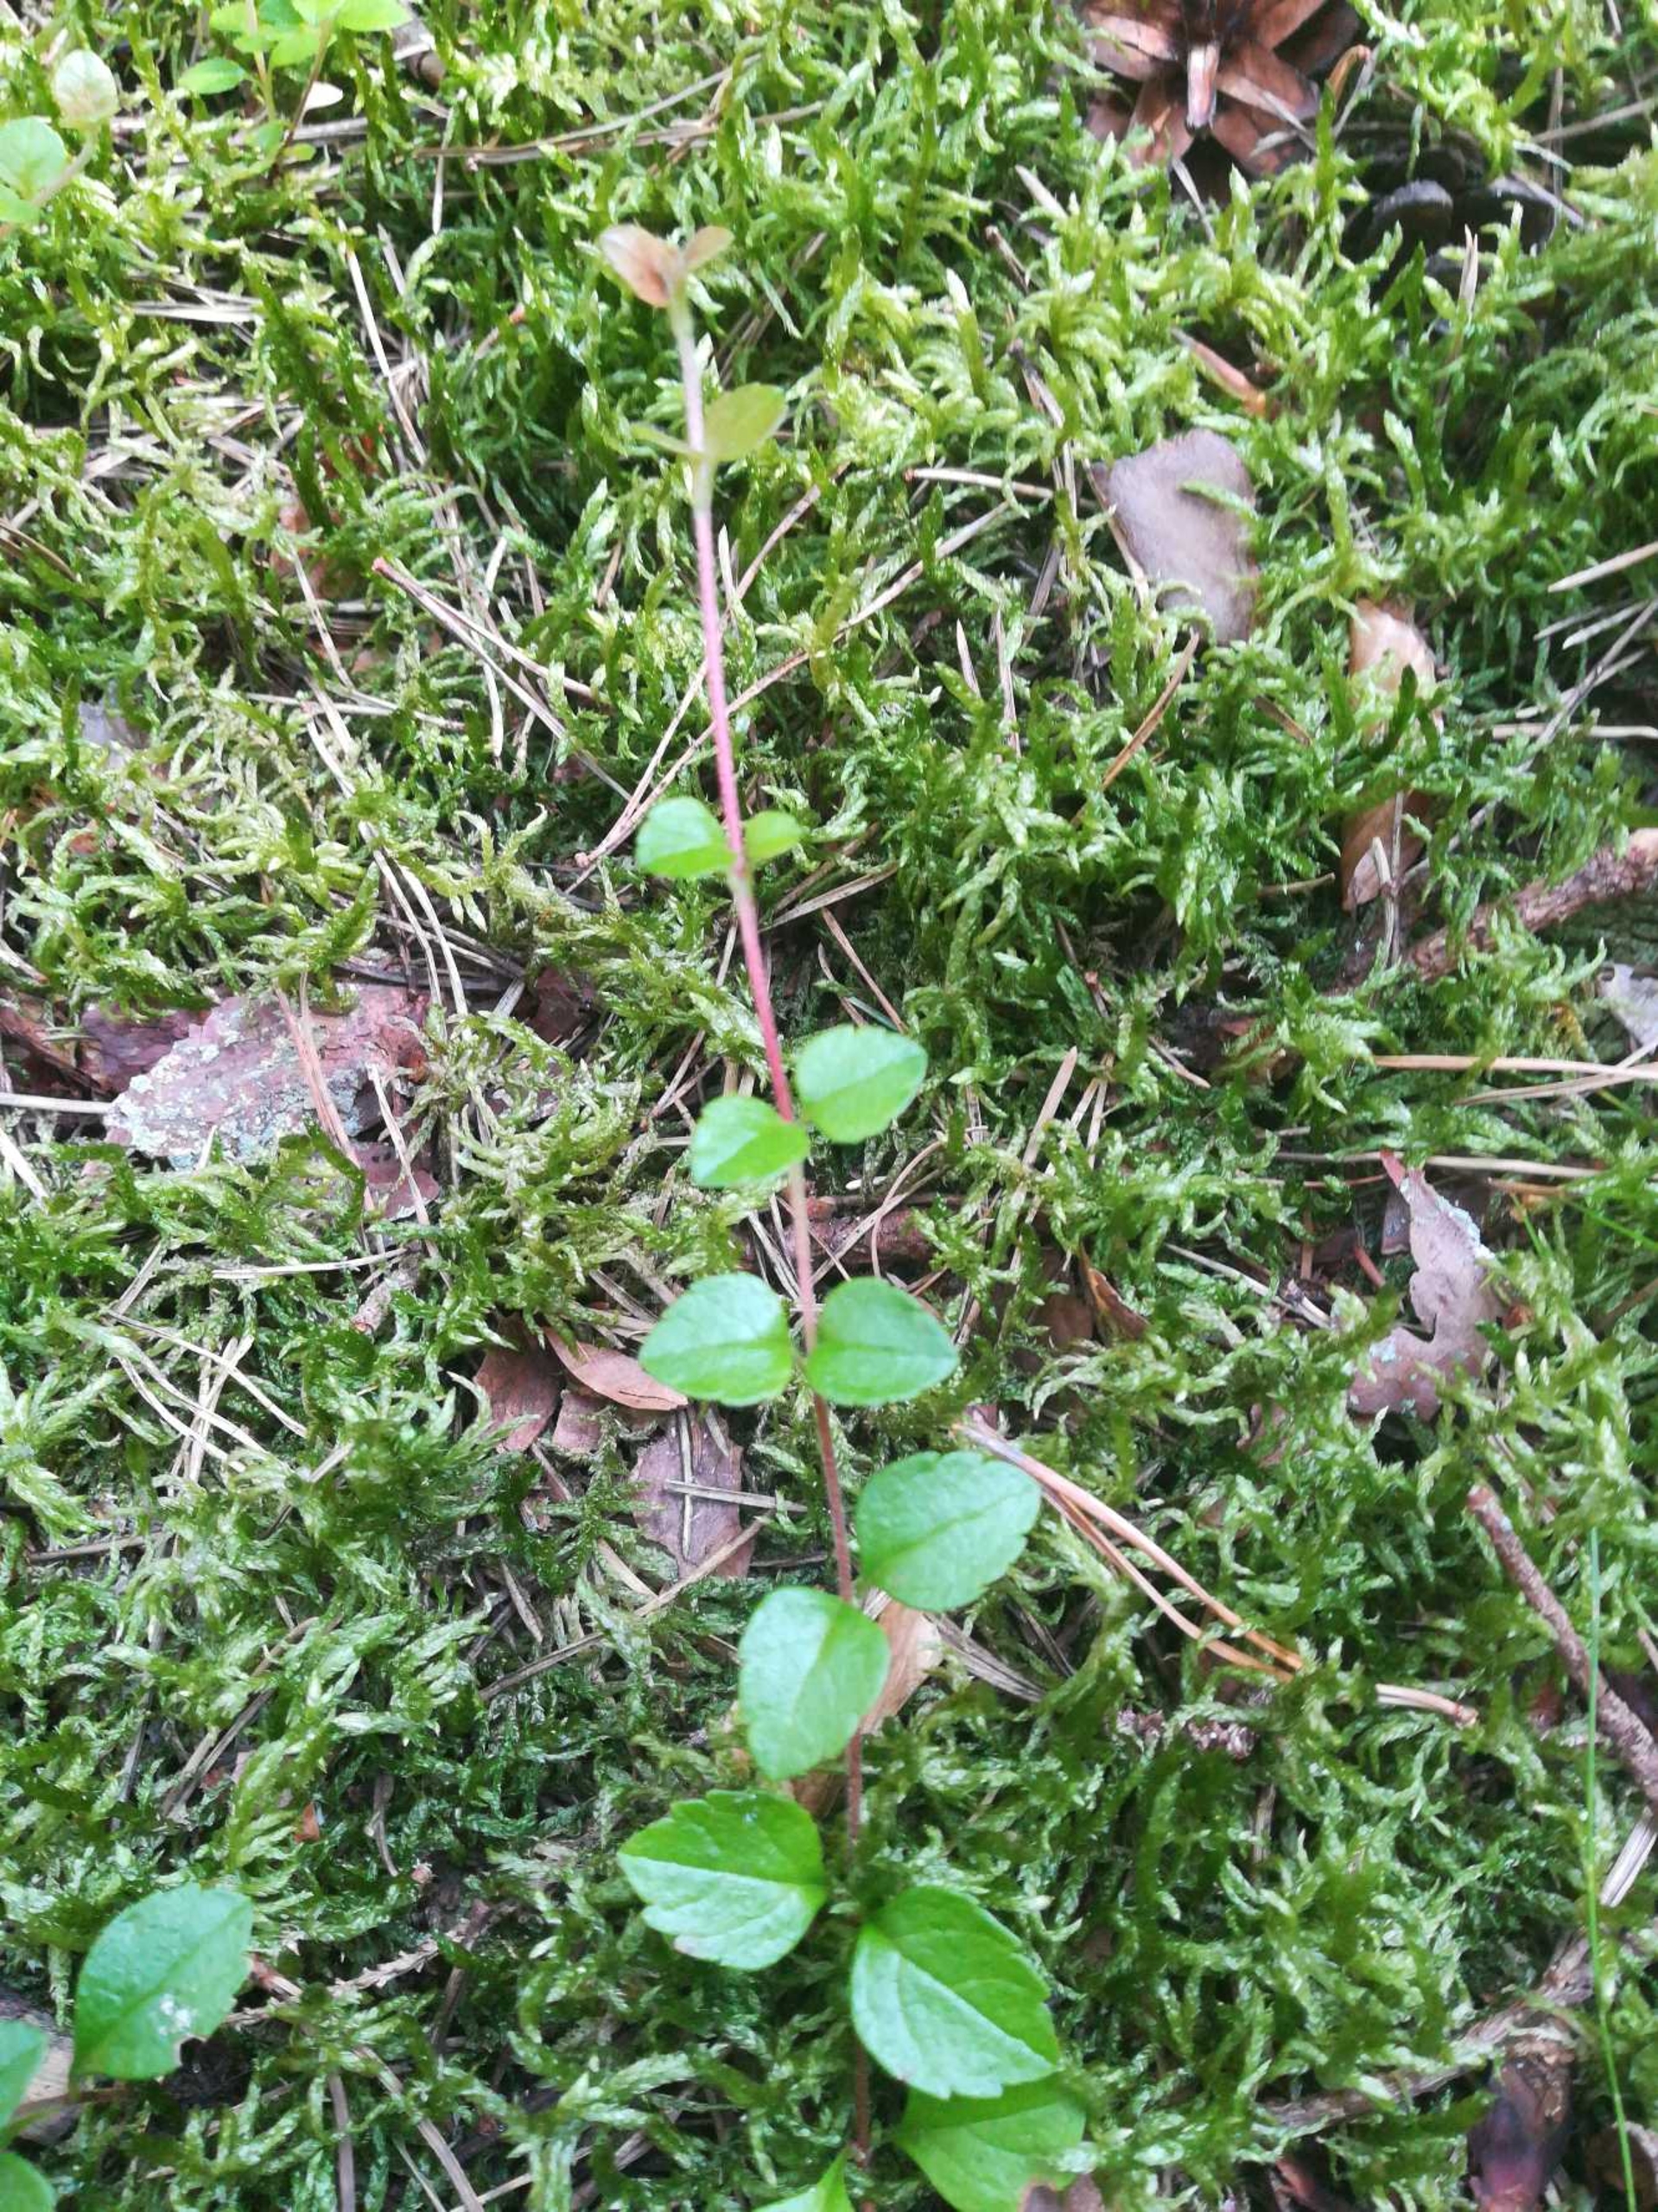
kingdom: Plantae
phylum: Tracheophyta
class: Magnoliopsida
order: Dipsacales
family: Caprifoliaceae
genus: Linnaea
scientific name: Linnaea borealis
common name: Linnæa
